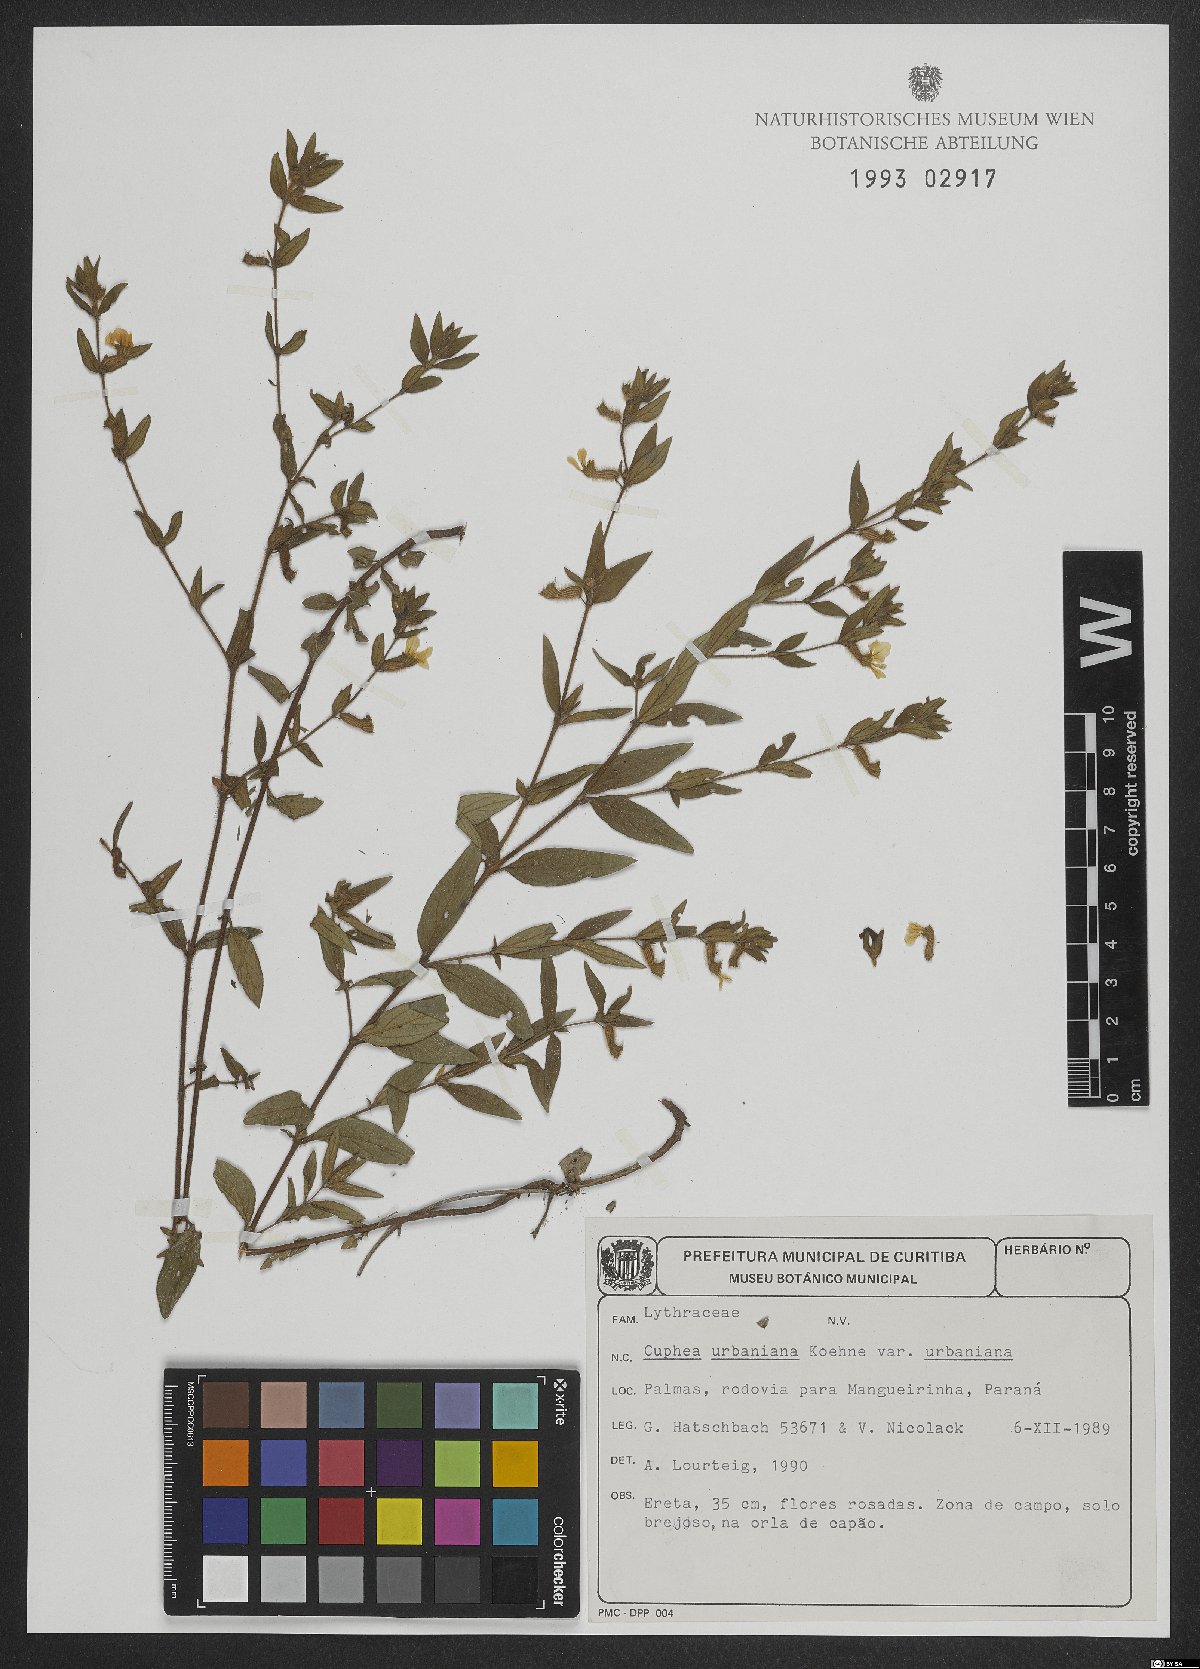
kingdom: Plantae
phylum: Tracheophyta
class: Magnoliopsida
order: Myrtales
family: Lythraceae
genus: Cuphea
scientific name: Cuphea urbaniana
